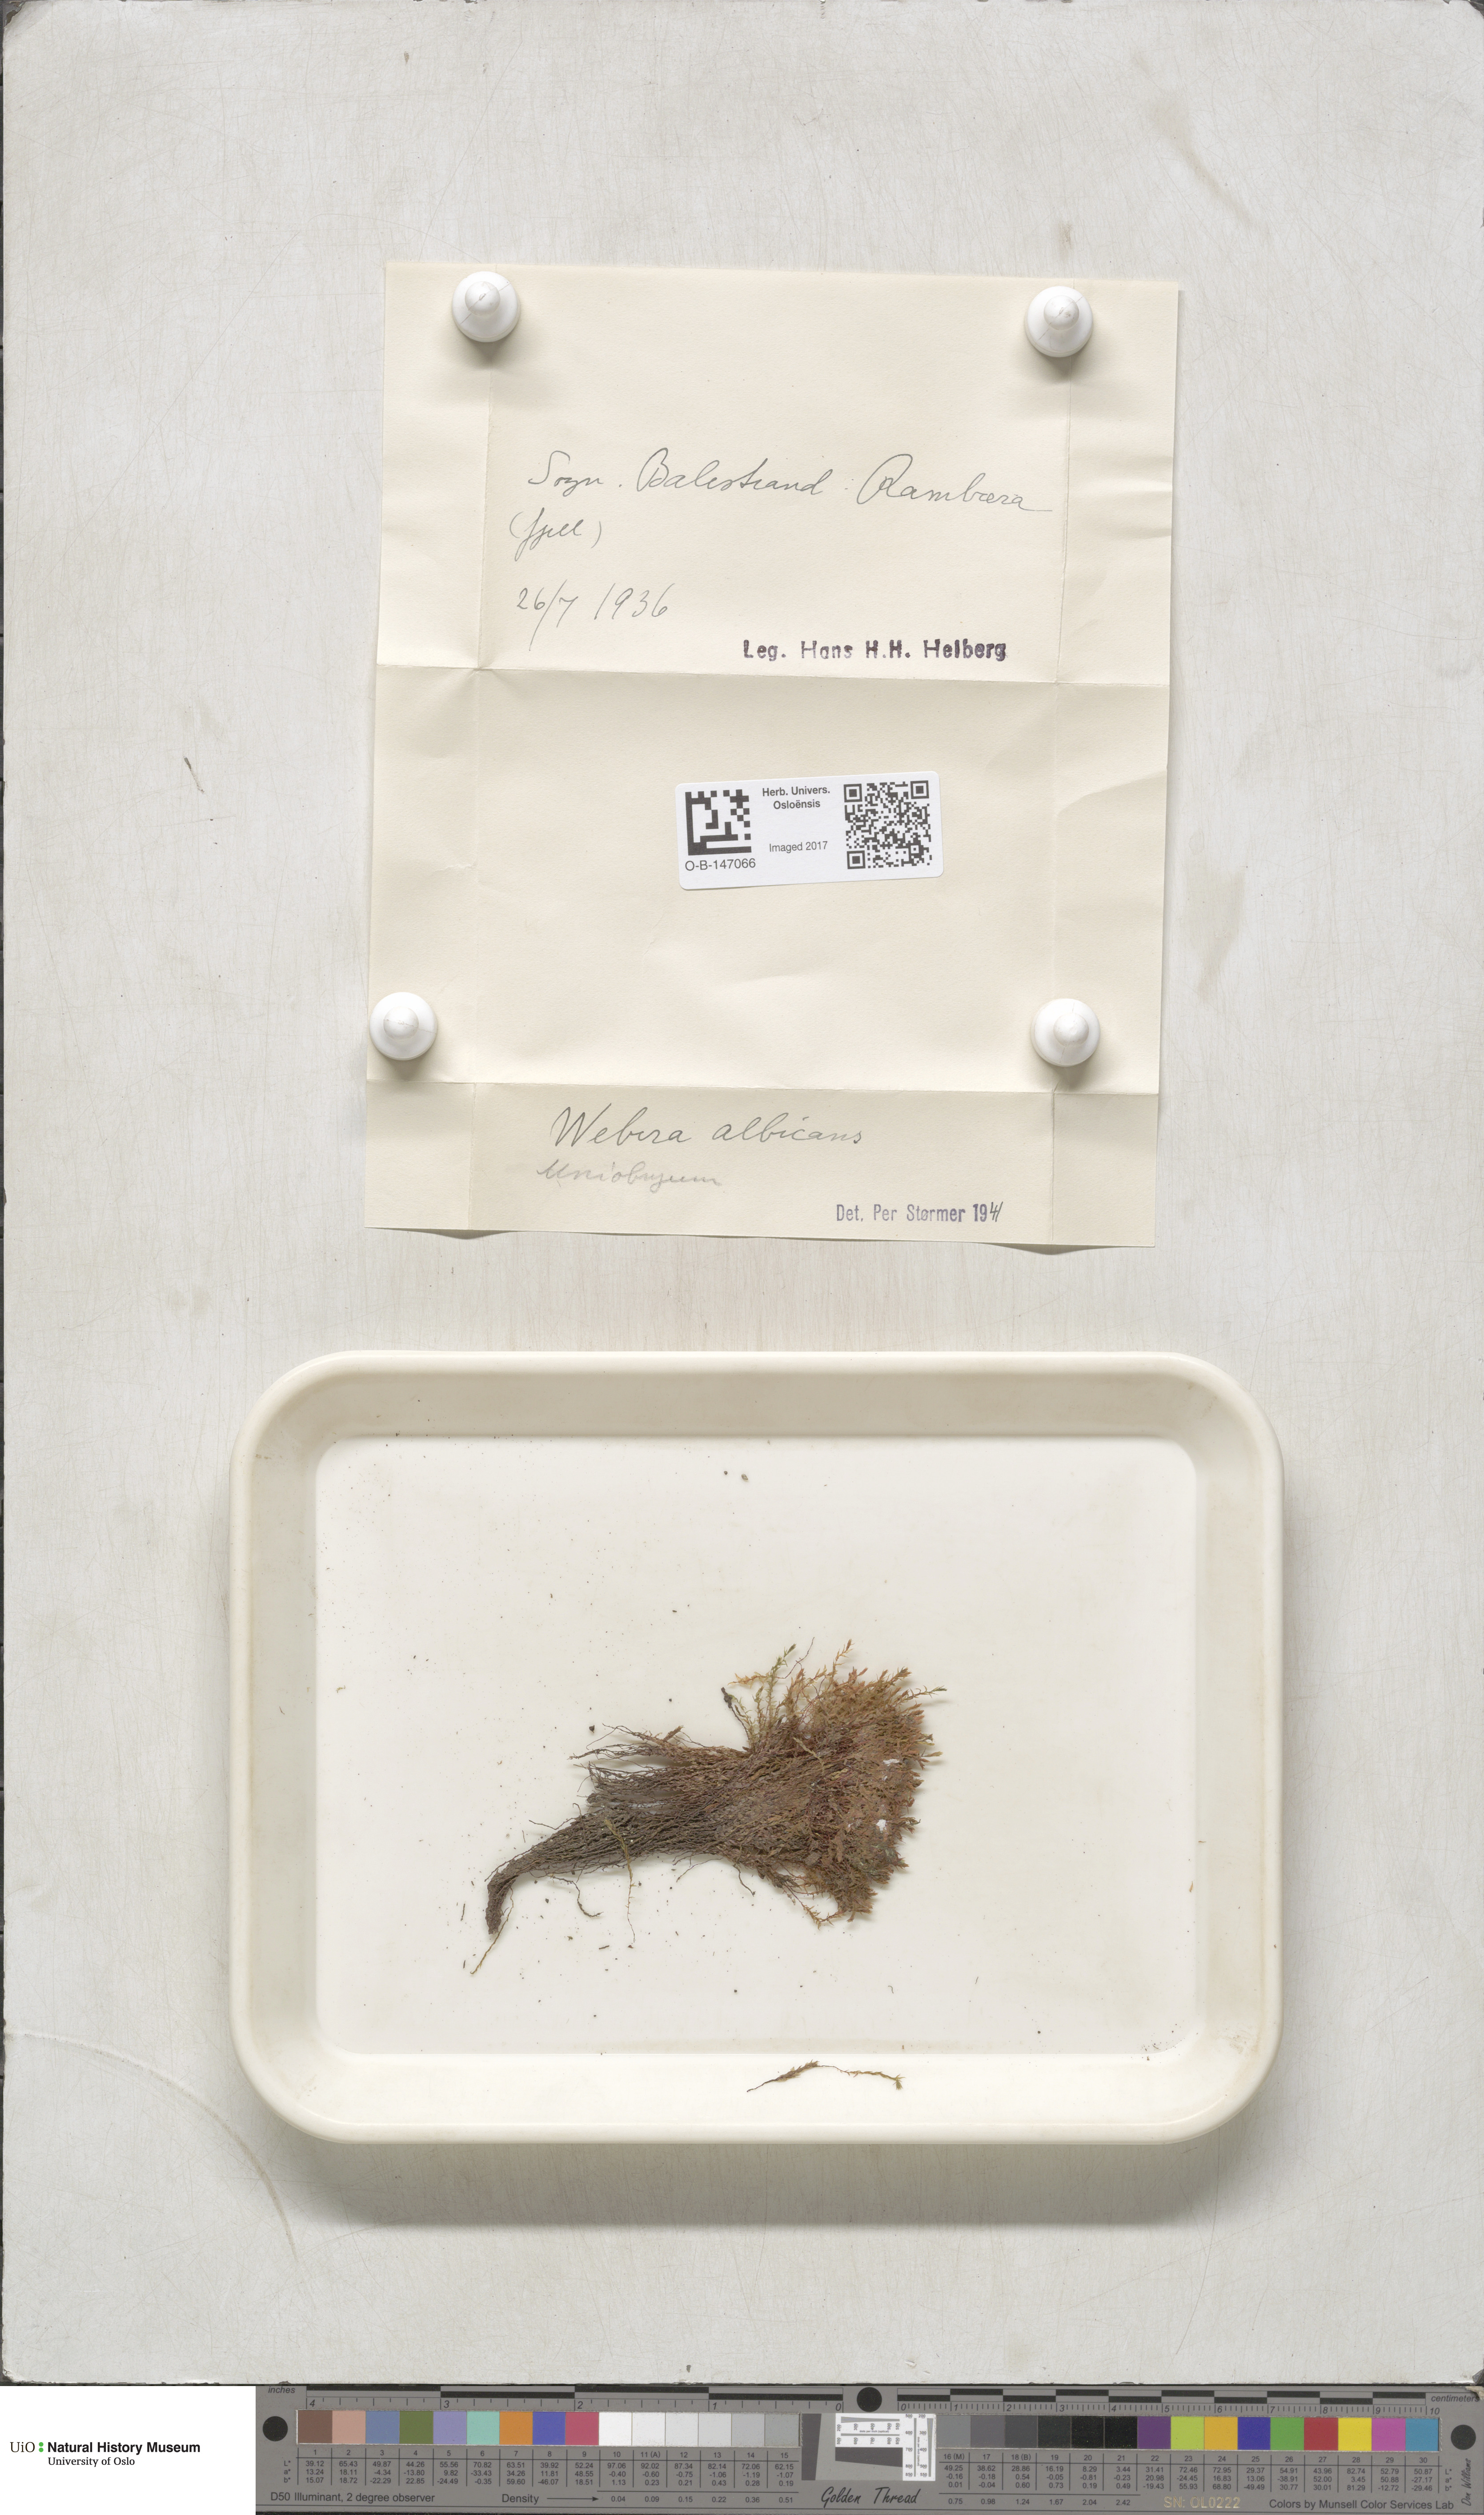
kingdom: Plantae
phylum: Bryophyta
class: Bryopsida
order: Bryales
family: Mniaceae
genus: Pohlia
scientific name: Pohlia wahlenbergii
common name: Wahlenberg's nodding moss
